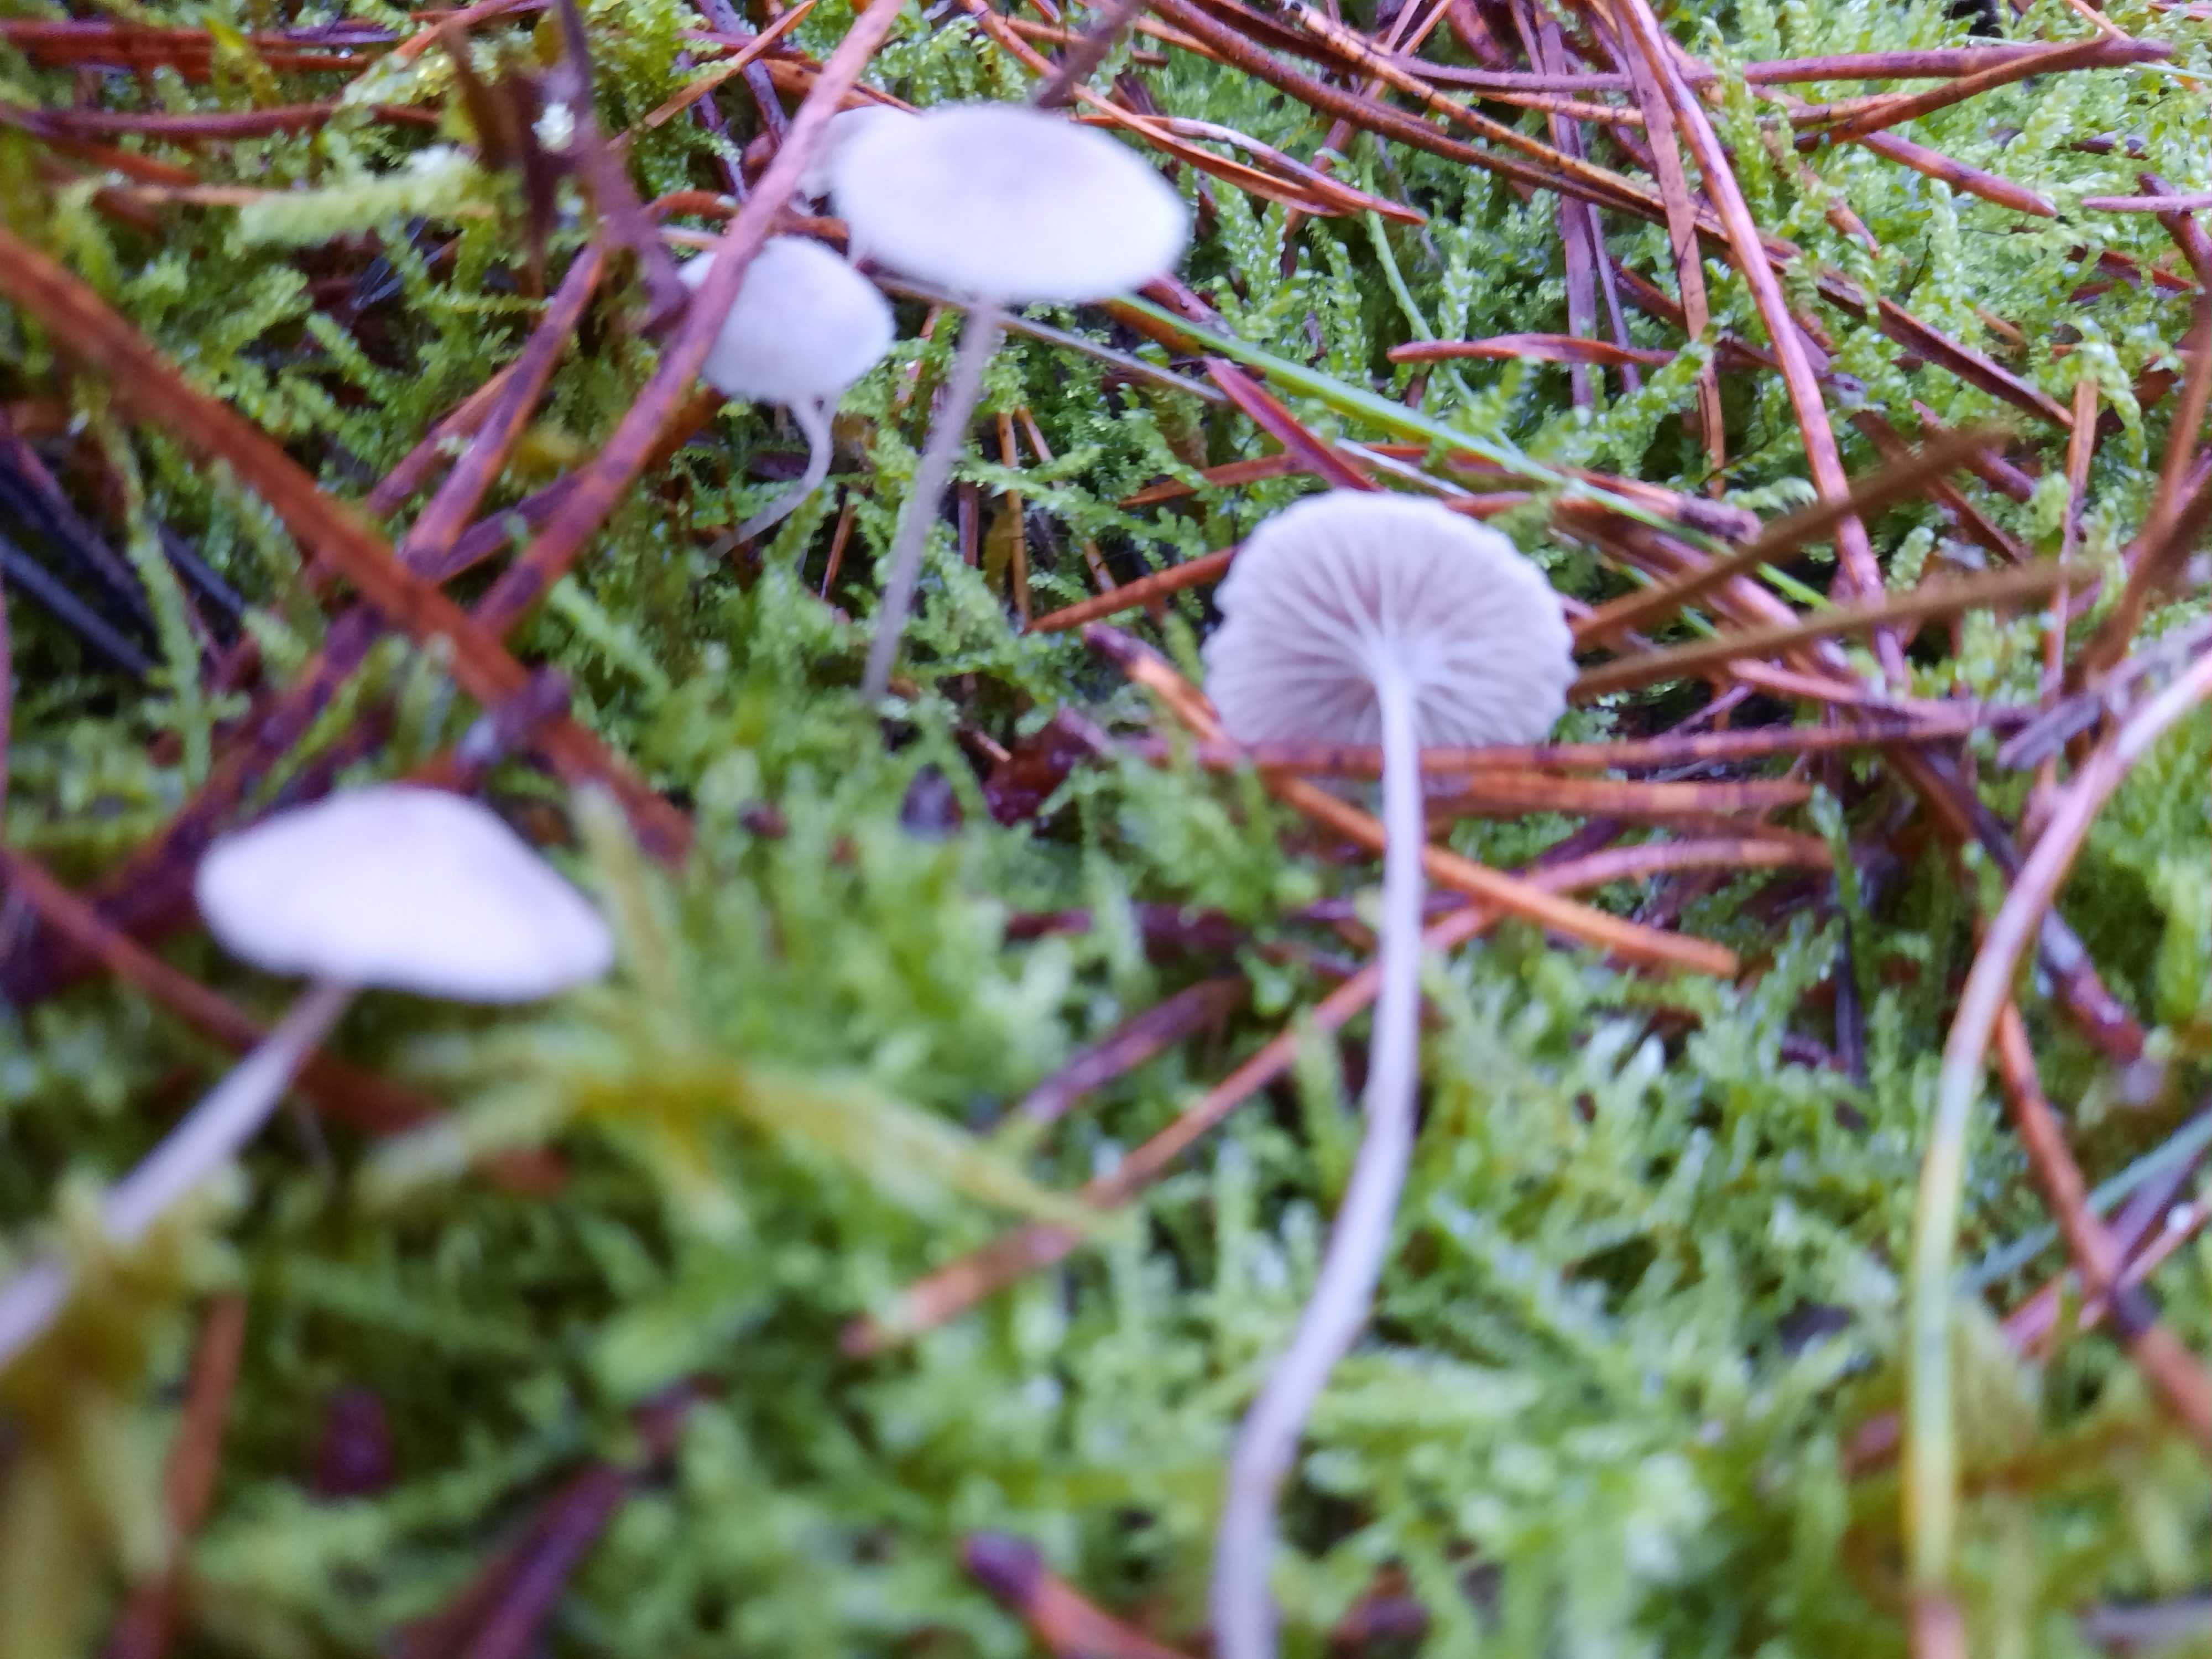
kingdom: Fungi
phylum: Basidiomycota
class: Agaricomycetes
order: Agaricales
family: Mycenaceae
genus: Mycena
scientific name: Mycena cinerella
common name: mel-huesvamp
